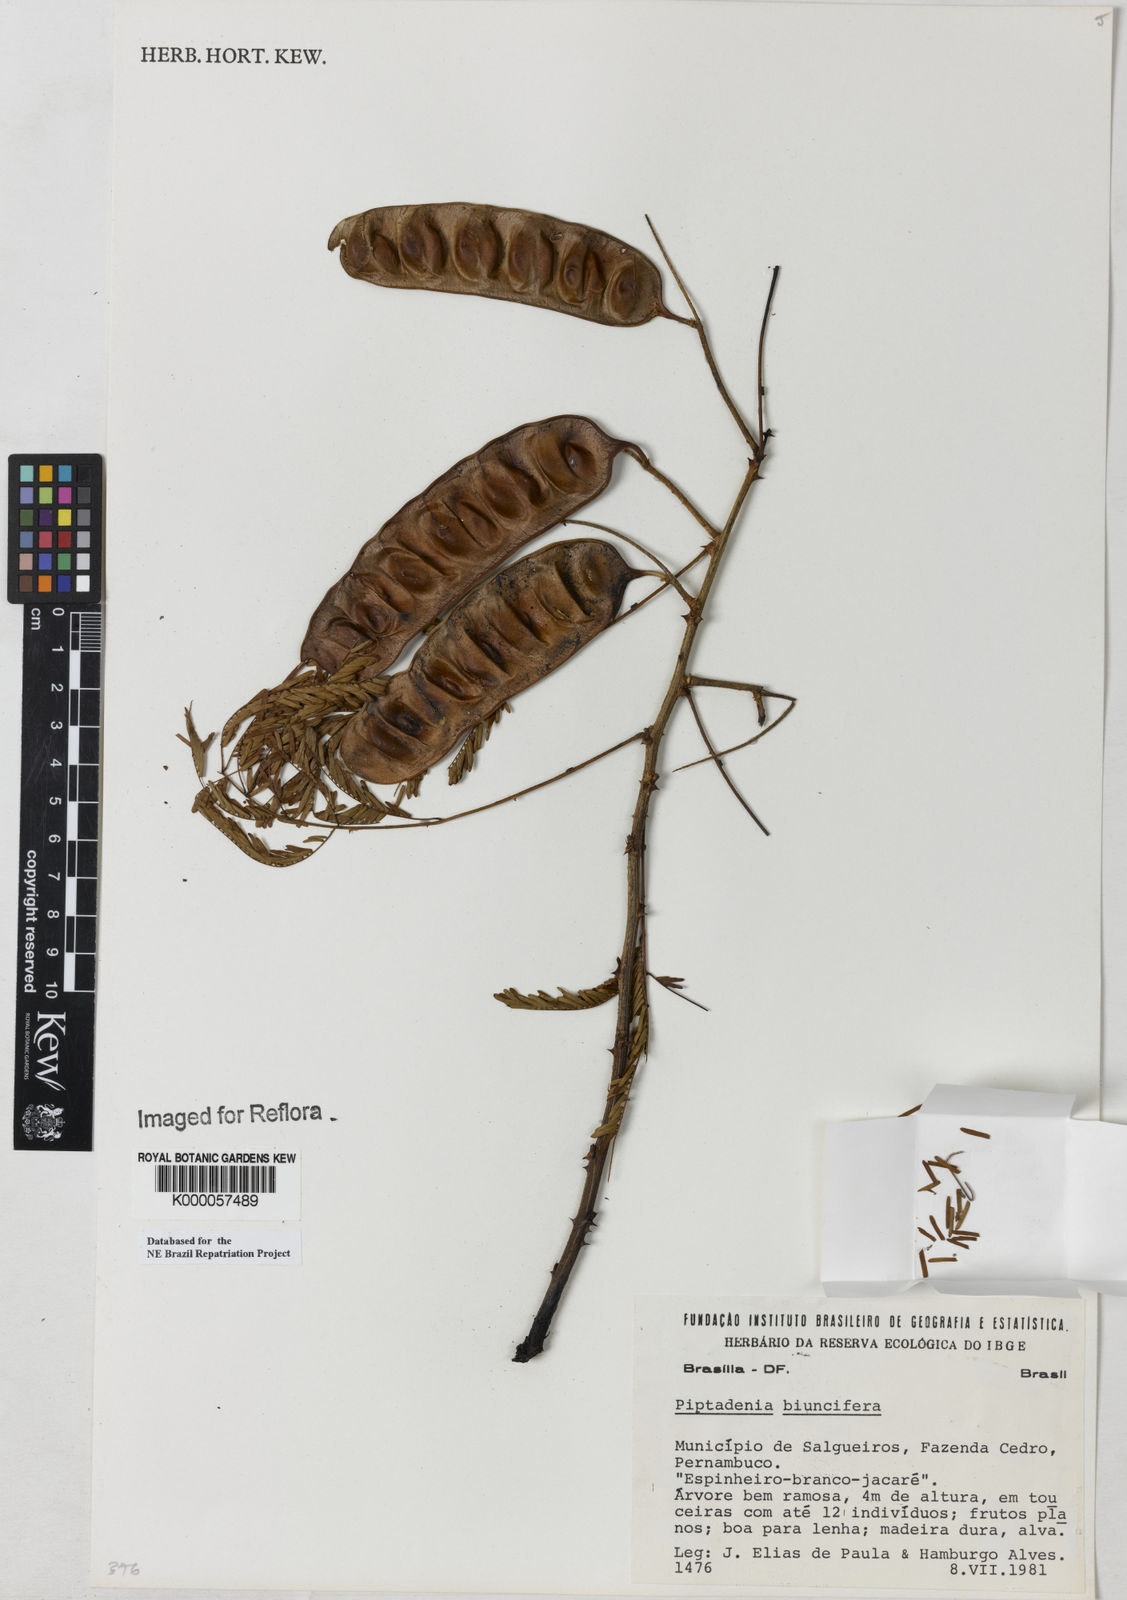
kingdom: Plantae
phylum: Tracheophyta
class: Magnoliopsida
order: Fabales
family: Fabaceae
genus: Lachesiodendron
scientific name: Lachesiodendron viridiflorum
